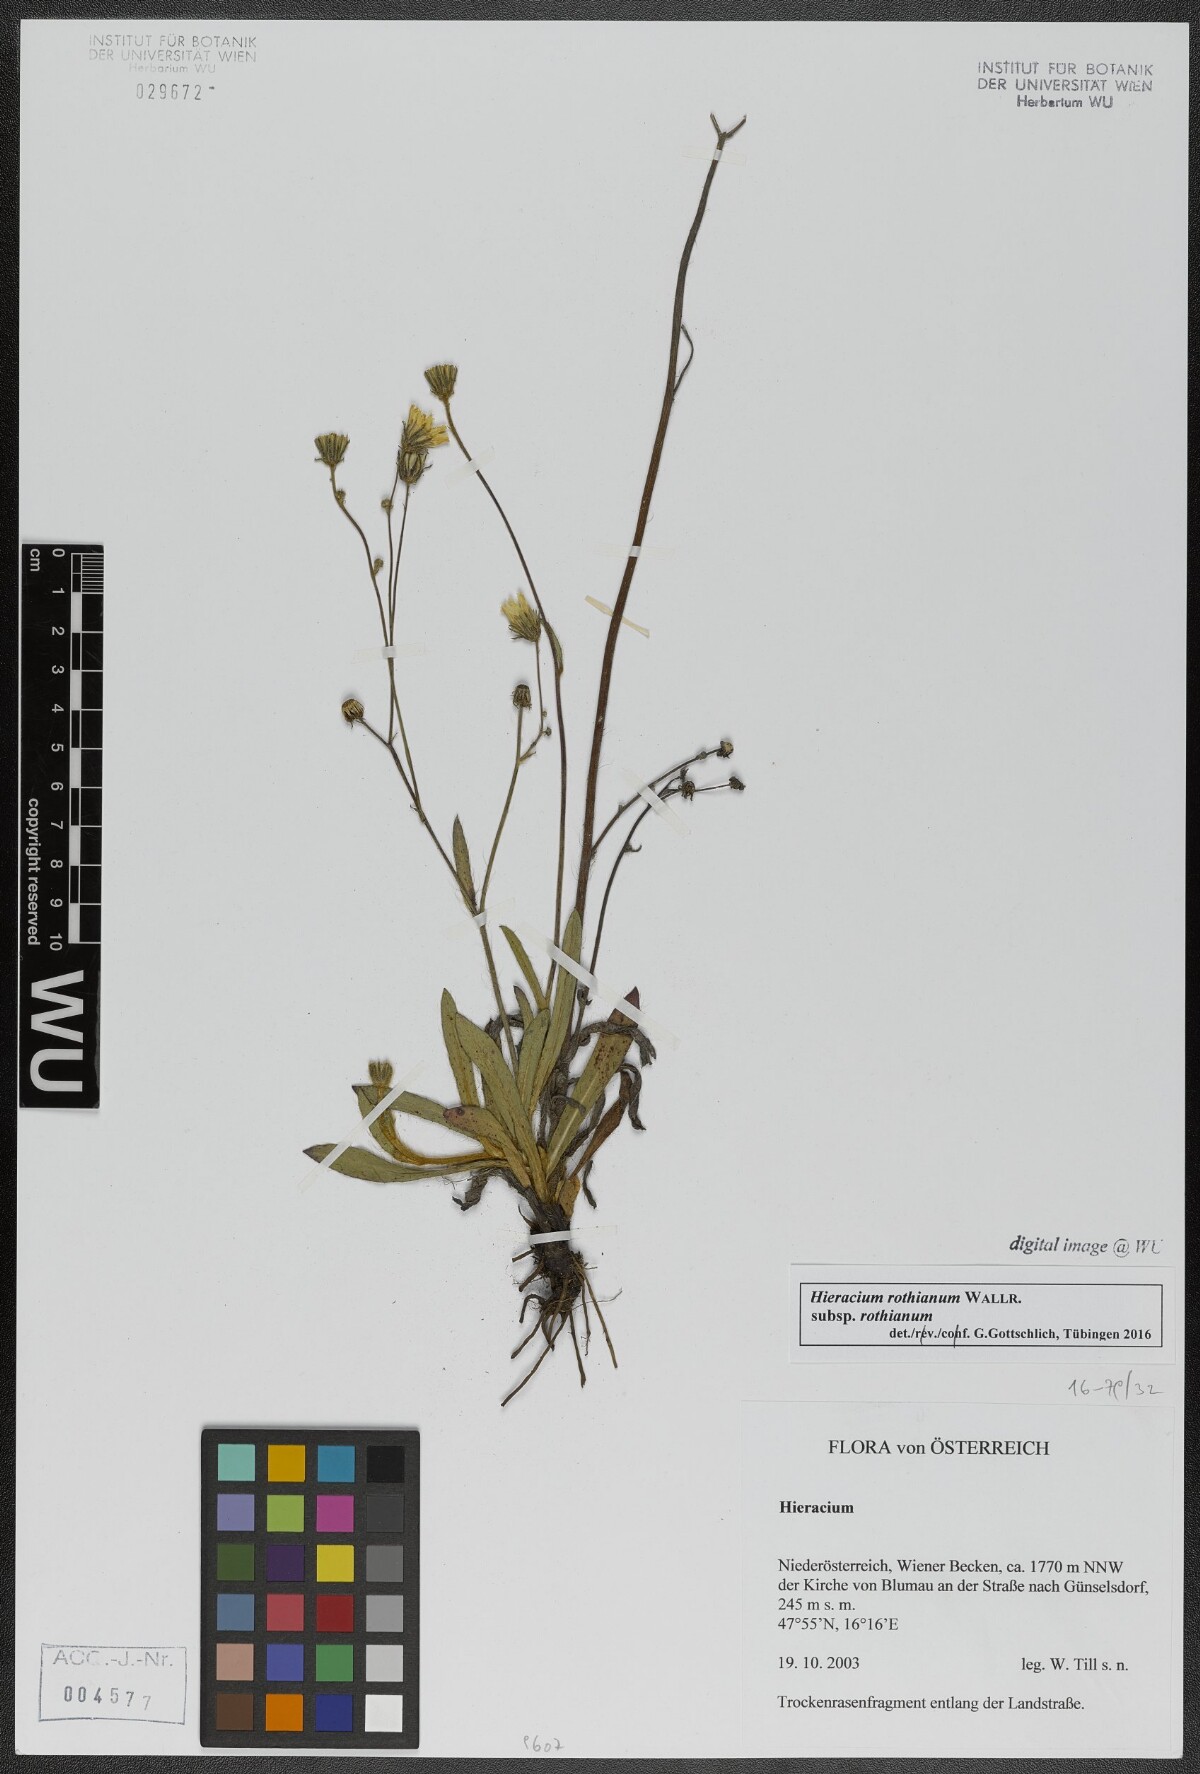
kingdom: Plantae
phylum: Tracheophyta
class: Magnoliopsida
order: Asterales
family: Asteraceae
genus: Pilosella
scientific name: Pilosella rothiana
